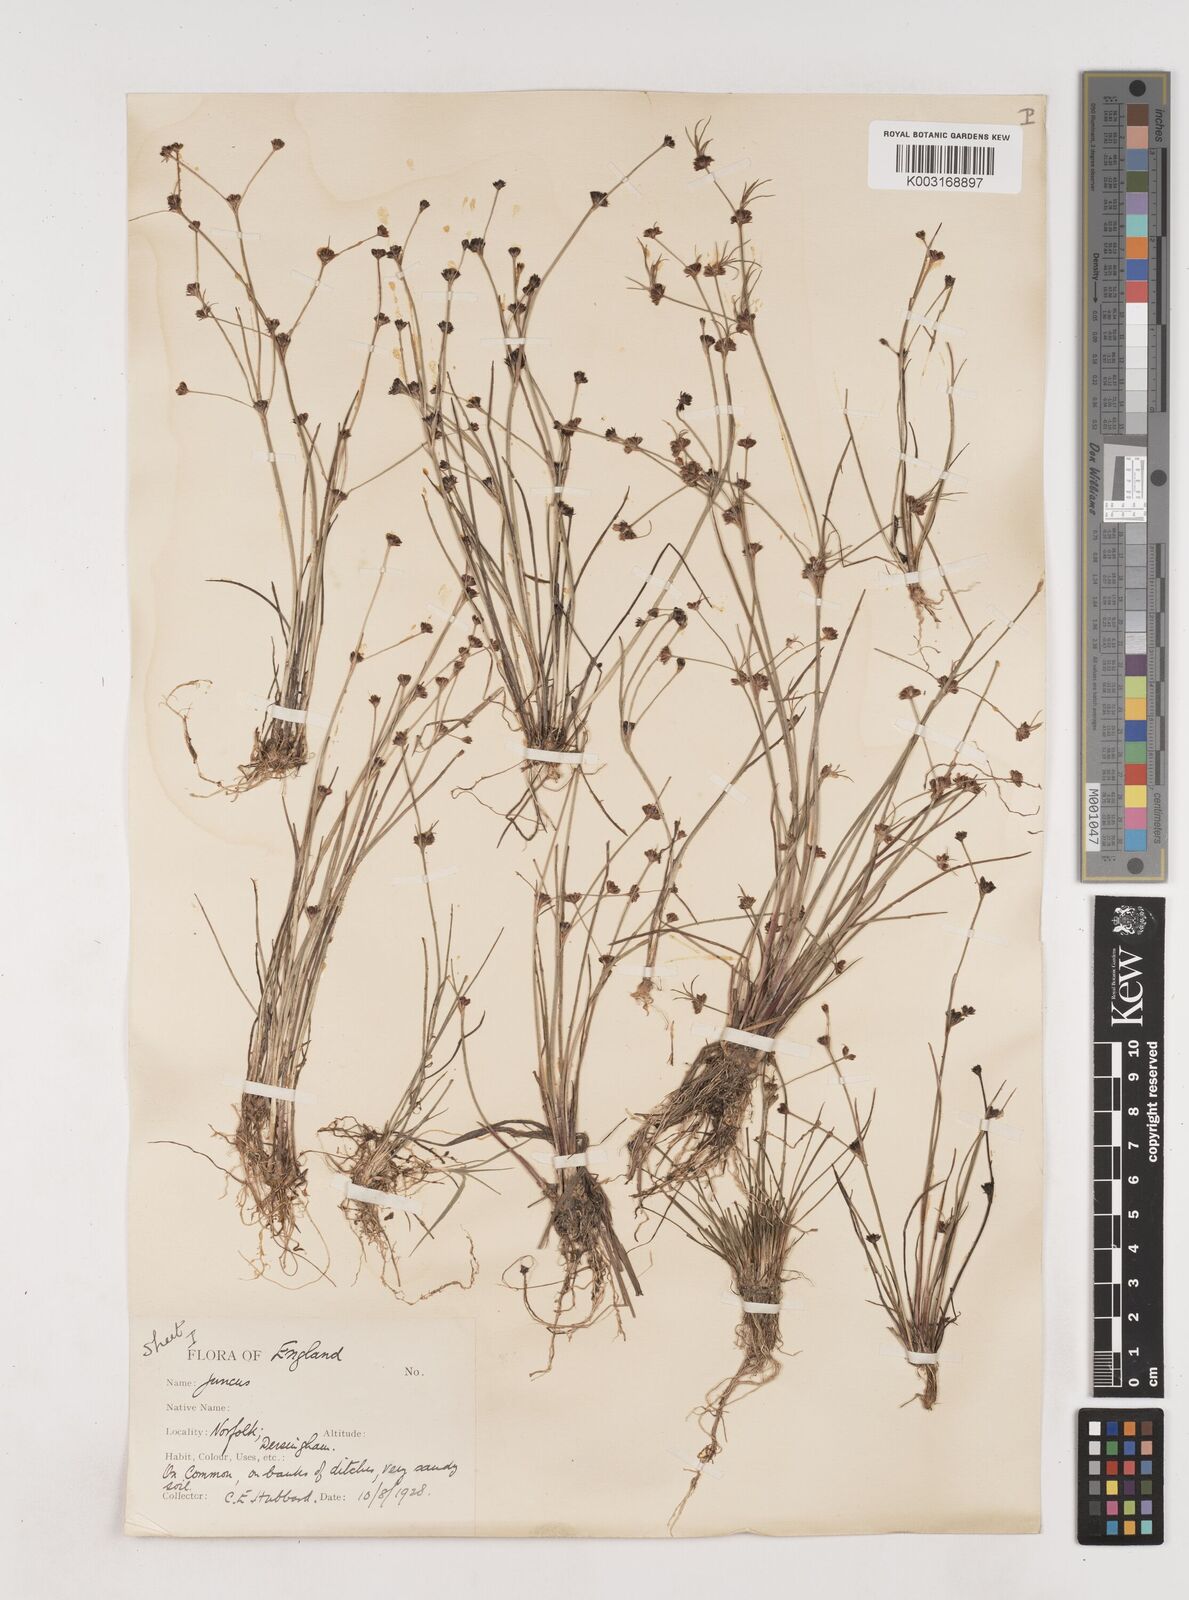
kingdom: Plantae
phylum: Tracheophyta
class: Liliopsida
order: Poales
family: Juncaceae
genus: Juncus
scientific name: Juncus bulbosus
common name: Bulbous rush
